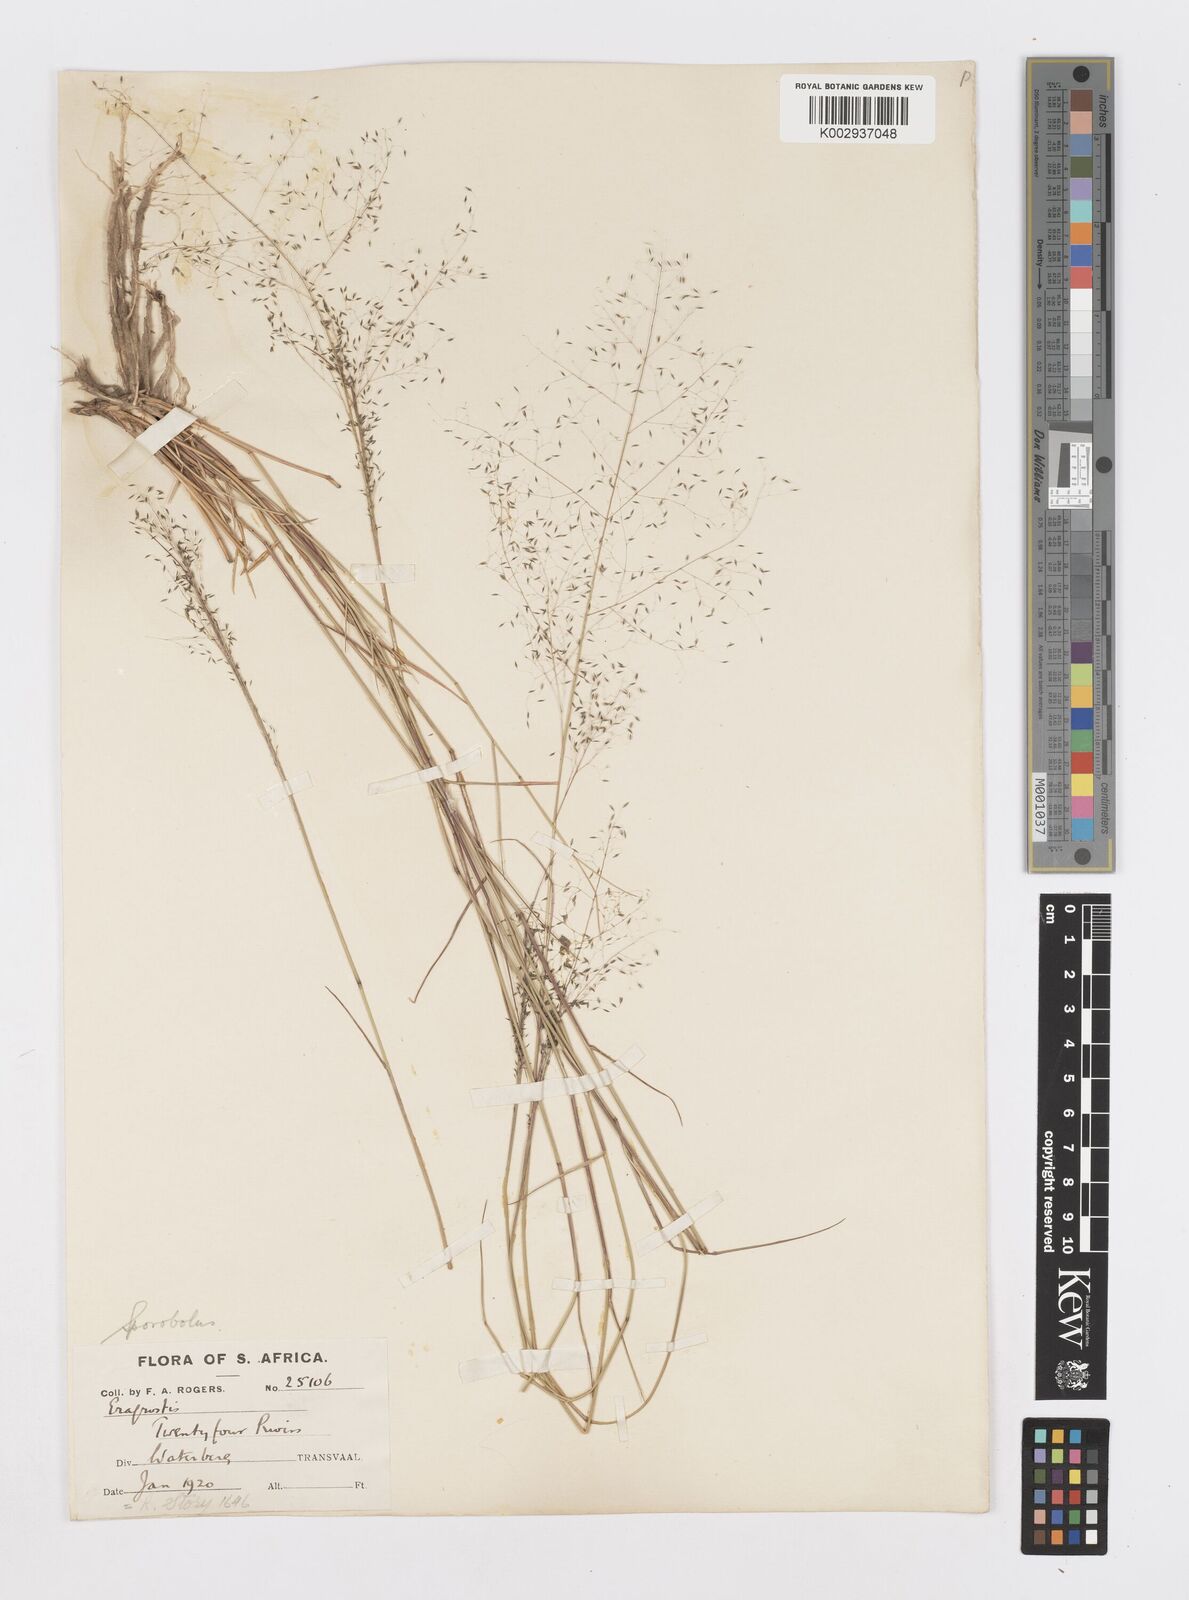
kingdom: Plantae
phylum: Tracheophyta
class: Liliopsida
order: Poales
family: Poaceae
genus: Sporobolus
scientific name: Sporobolus
